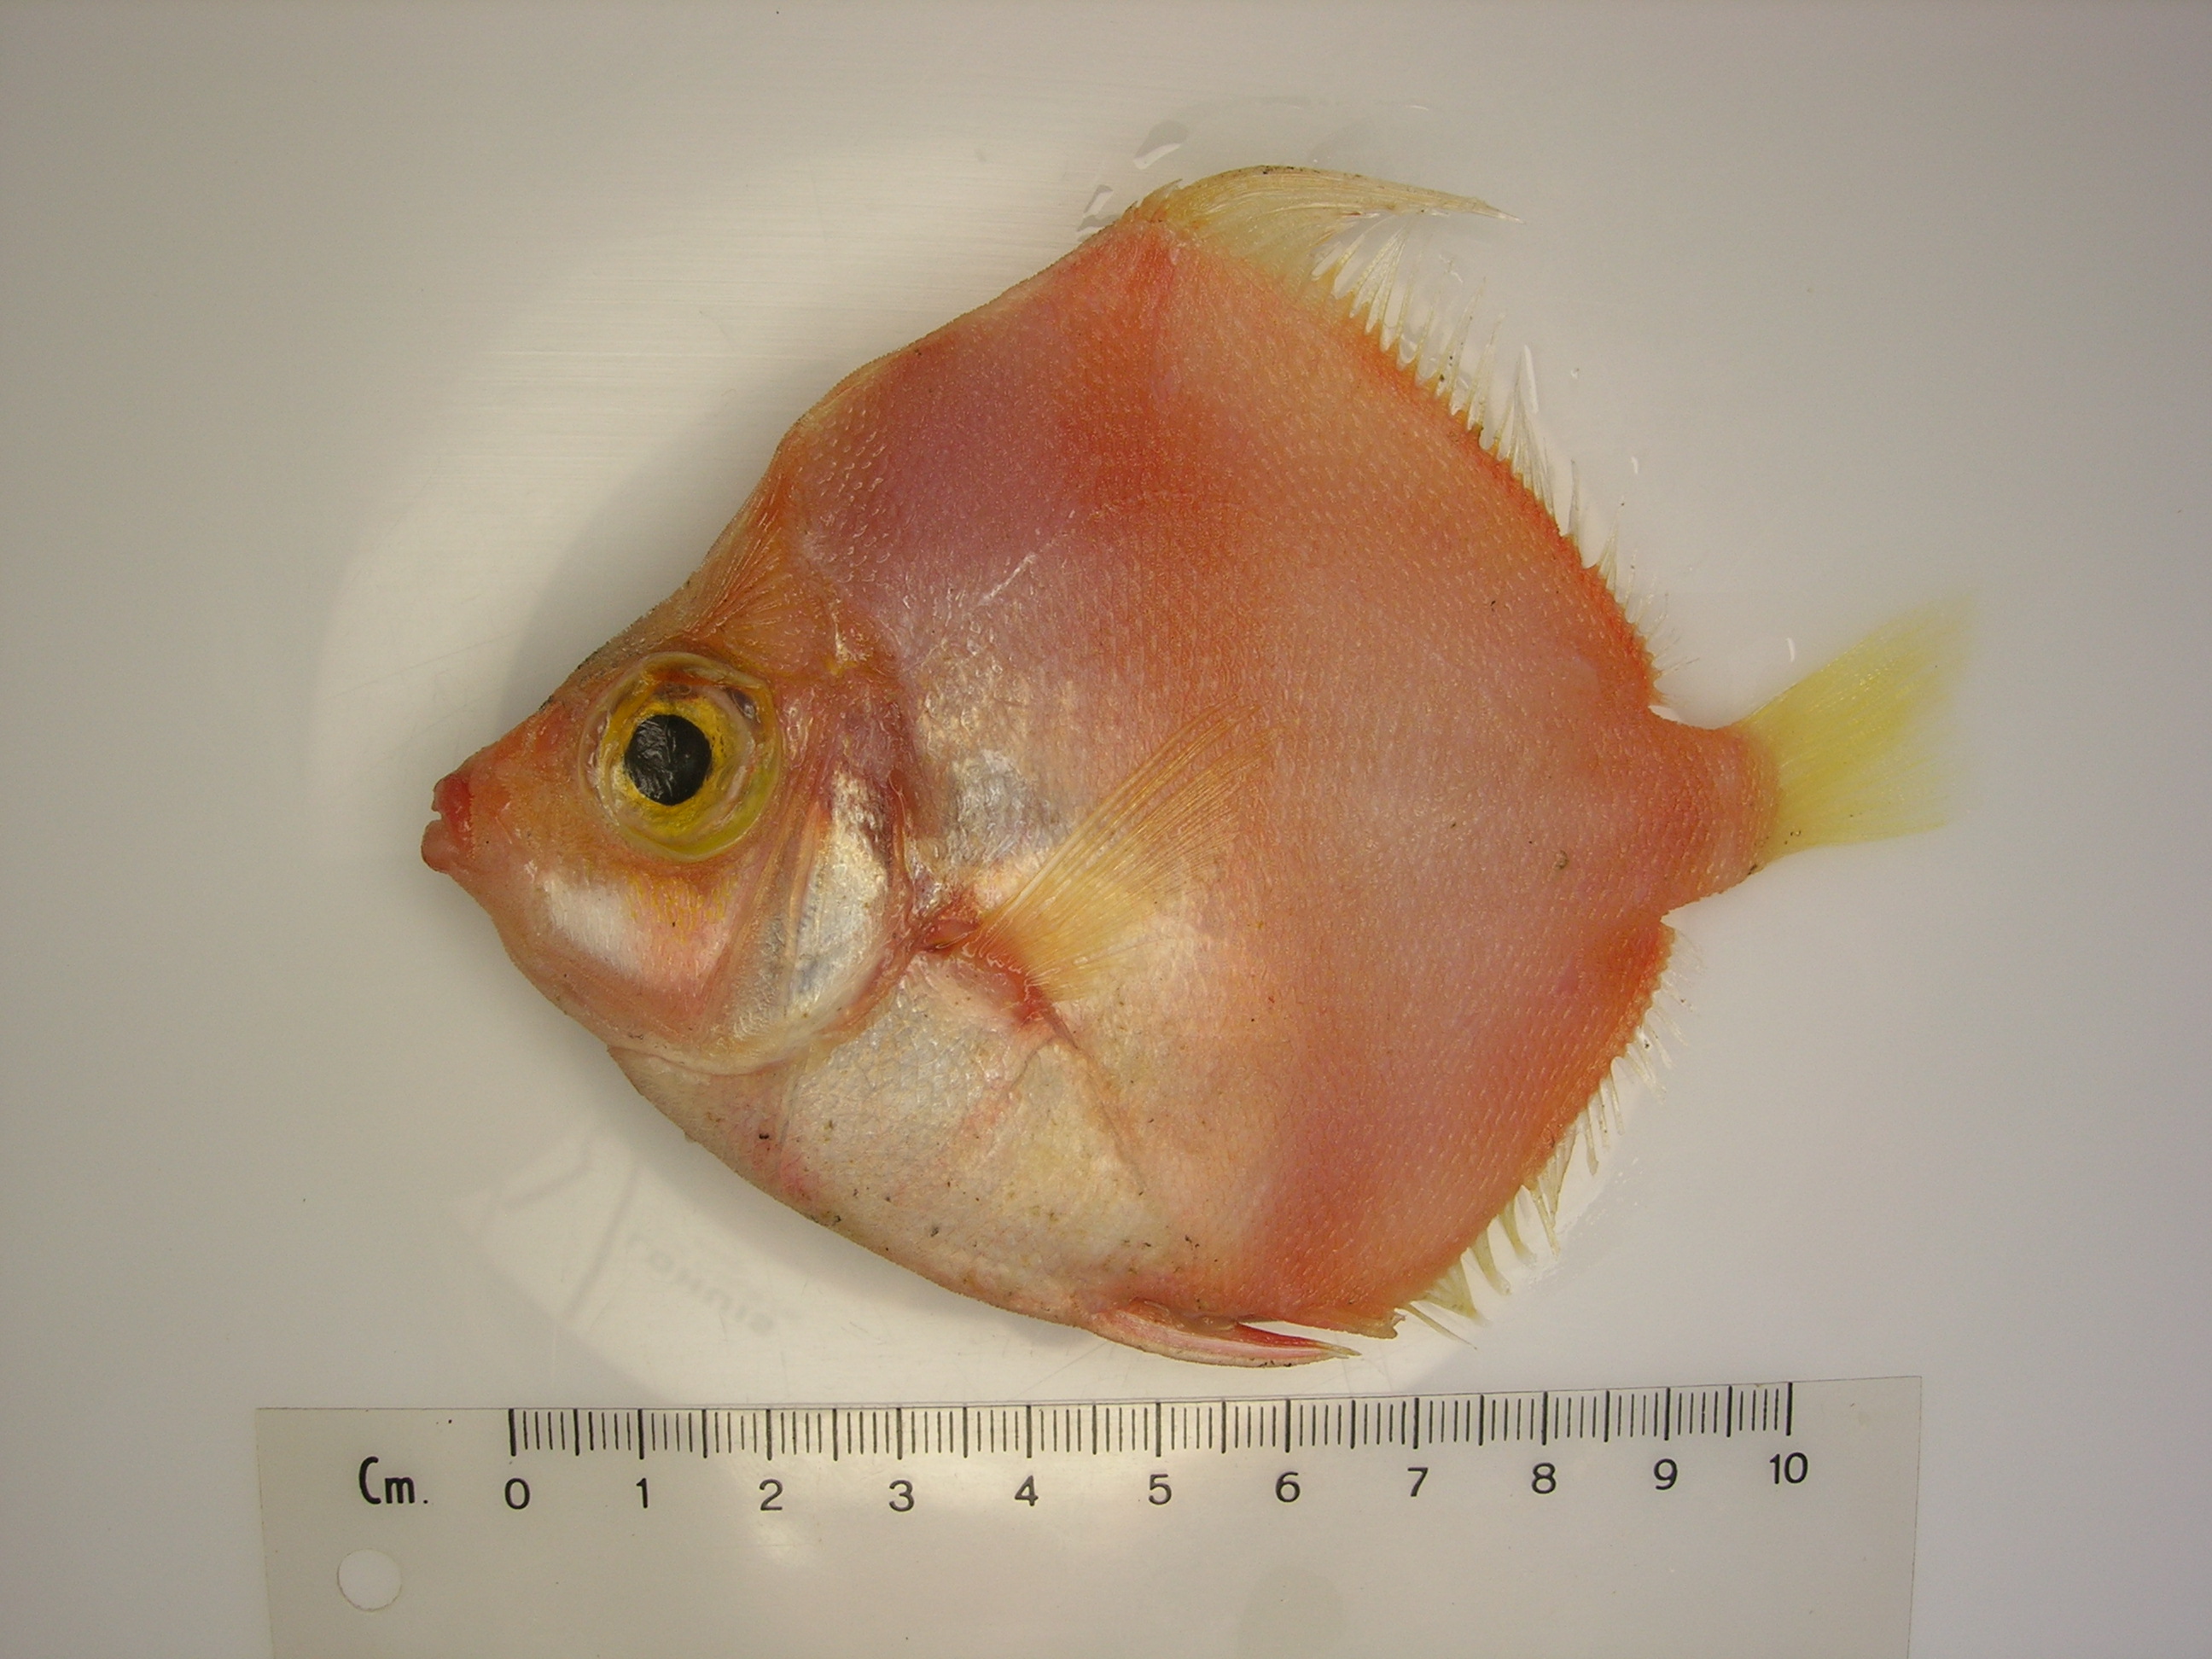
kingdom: Animalia
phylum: Chordata
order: Perciformes
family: Caproidae
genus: Antigonia
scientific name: Antigonia rubescens
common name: Indo-pacific boarfish
